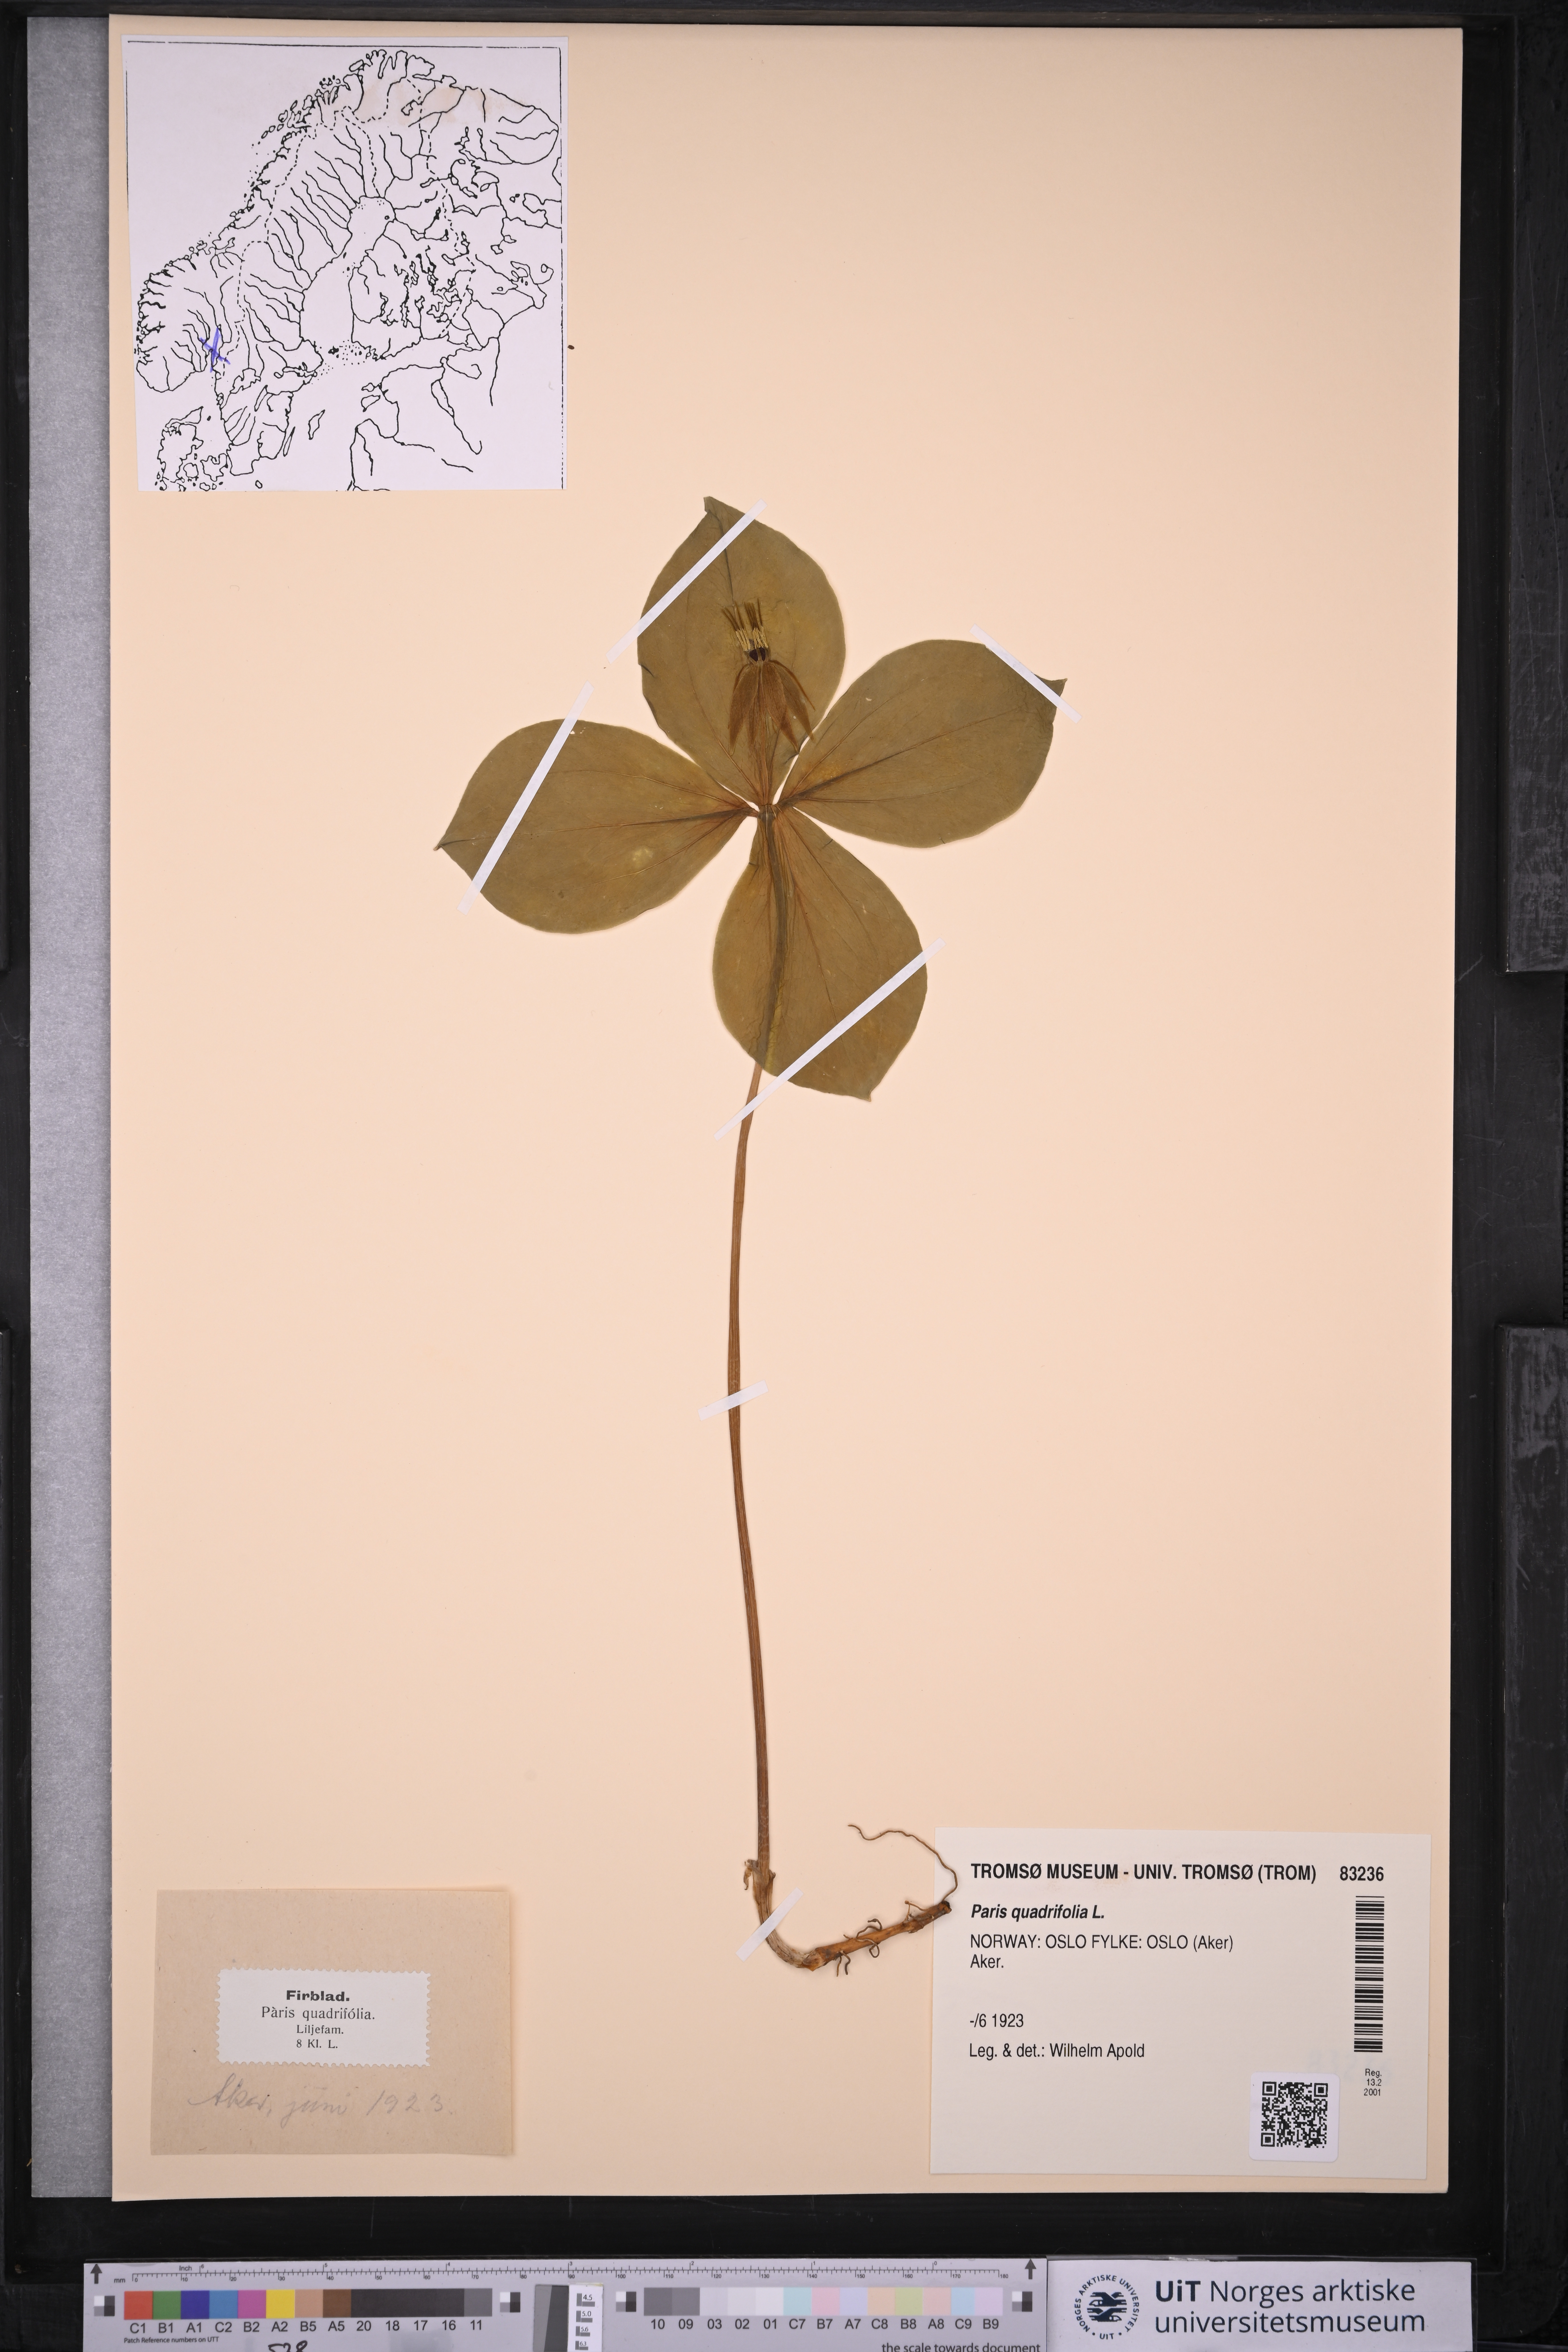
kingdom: Plantae
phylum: Tracheophyta
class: Liliopsida
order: Liliales
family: Melanthiaceae
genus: Paris
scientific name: Paris quadrifolia
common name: Herb-paris
